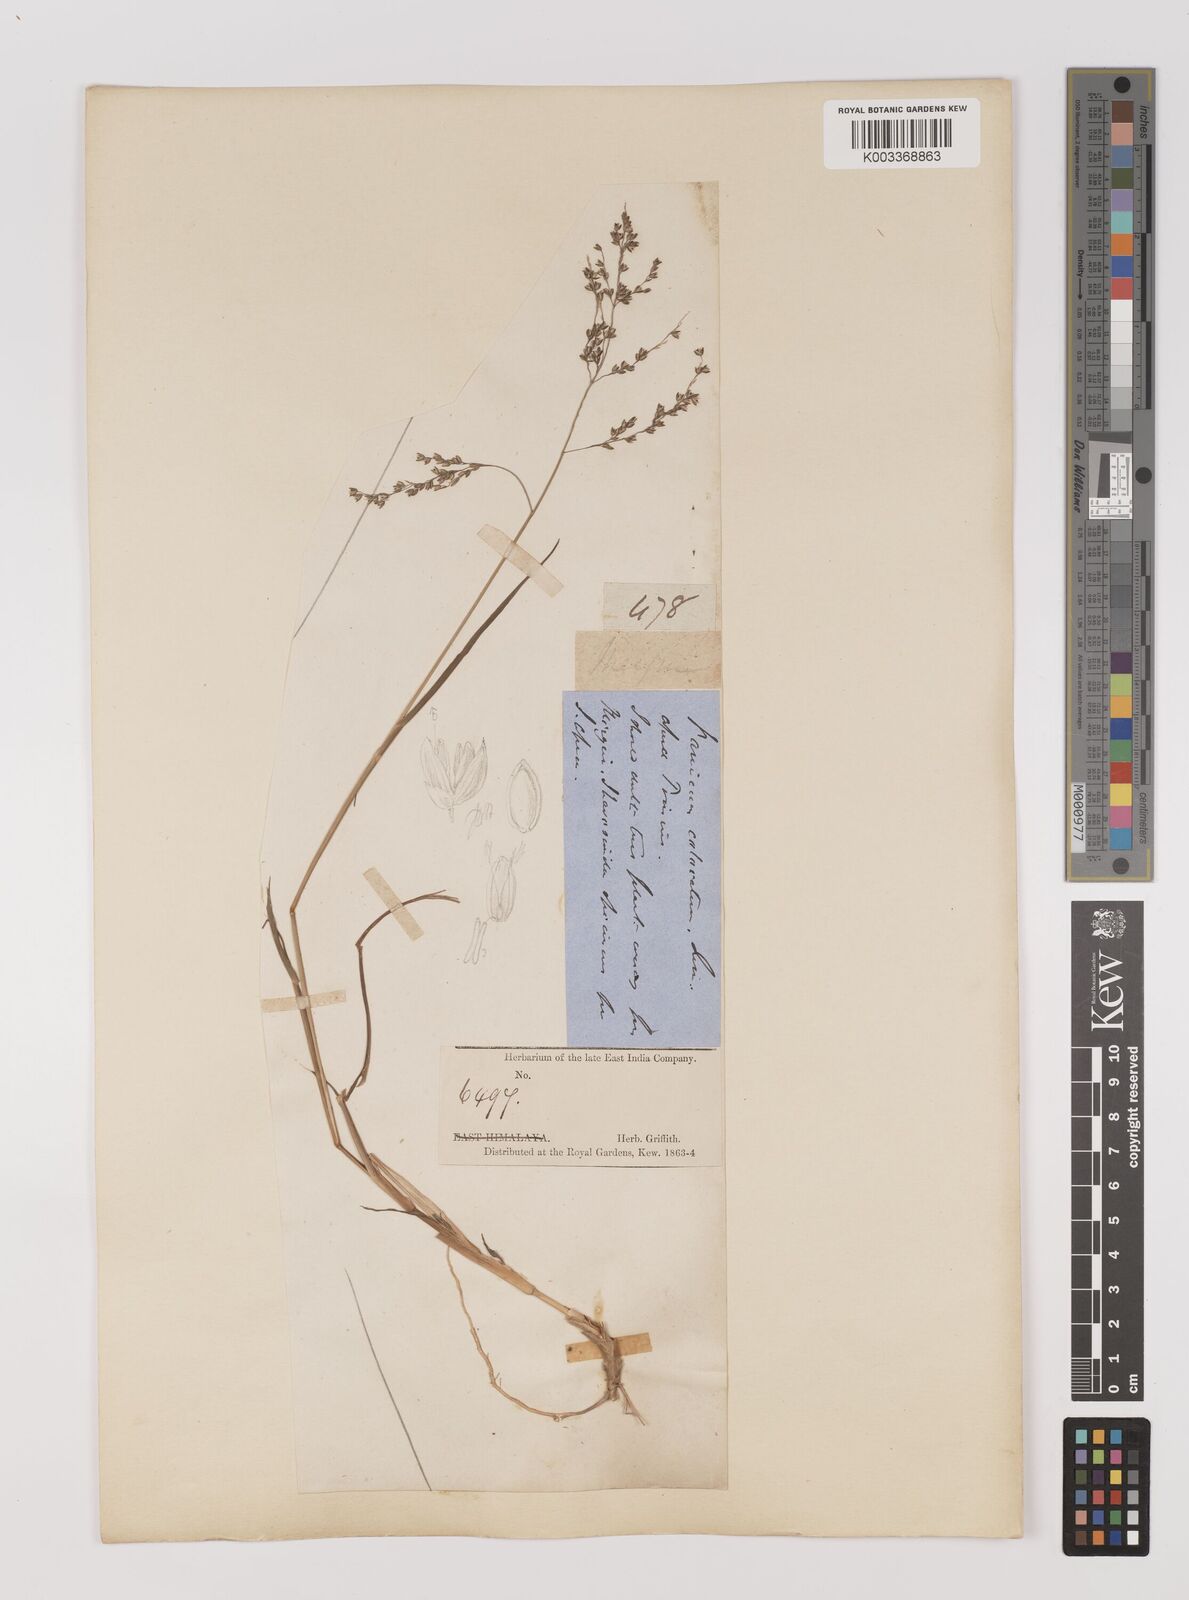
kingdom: Plantae
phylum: Tracheophyta
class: Liliopsida
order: Poales
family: Poaceae
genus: Panicum
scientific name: Panicum
